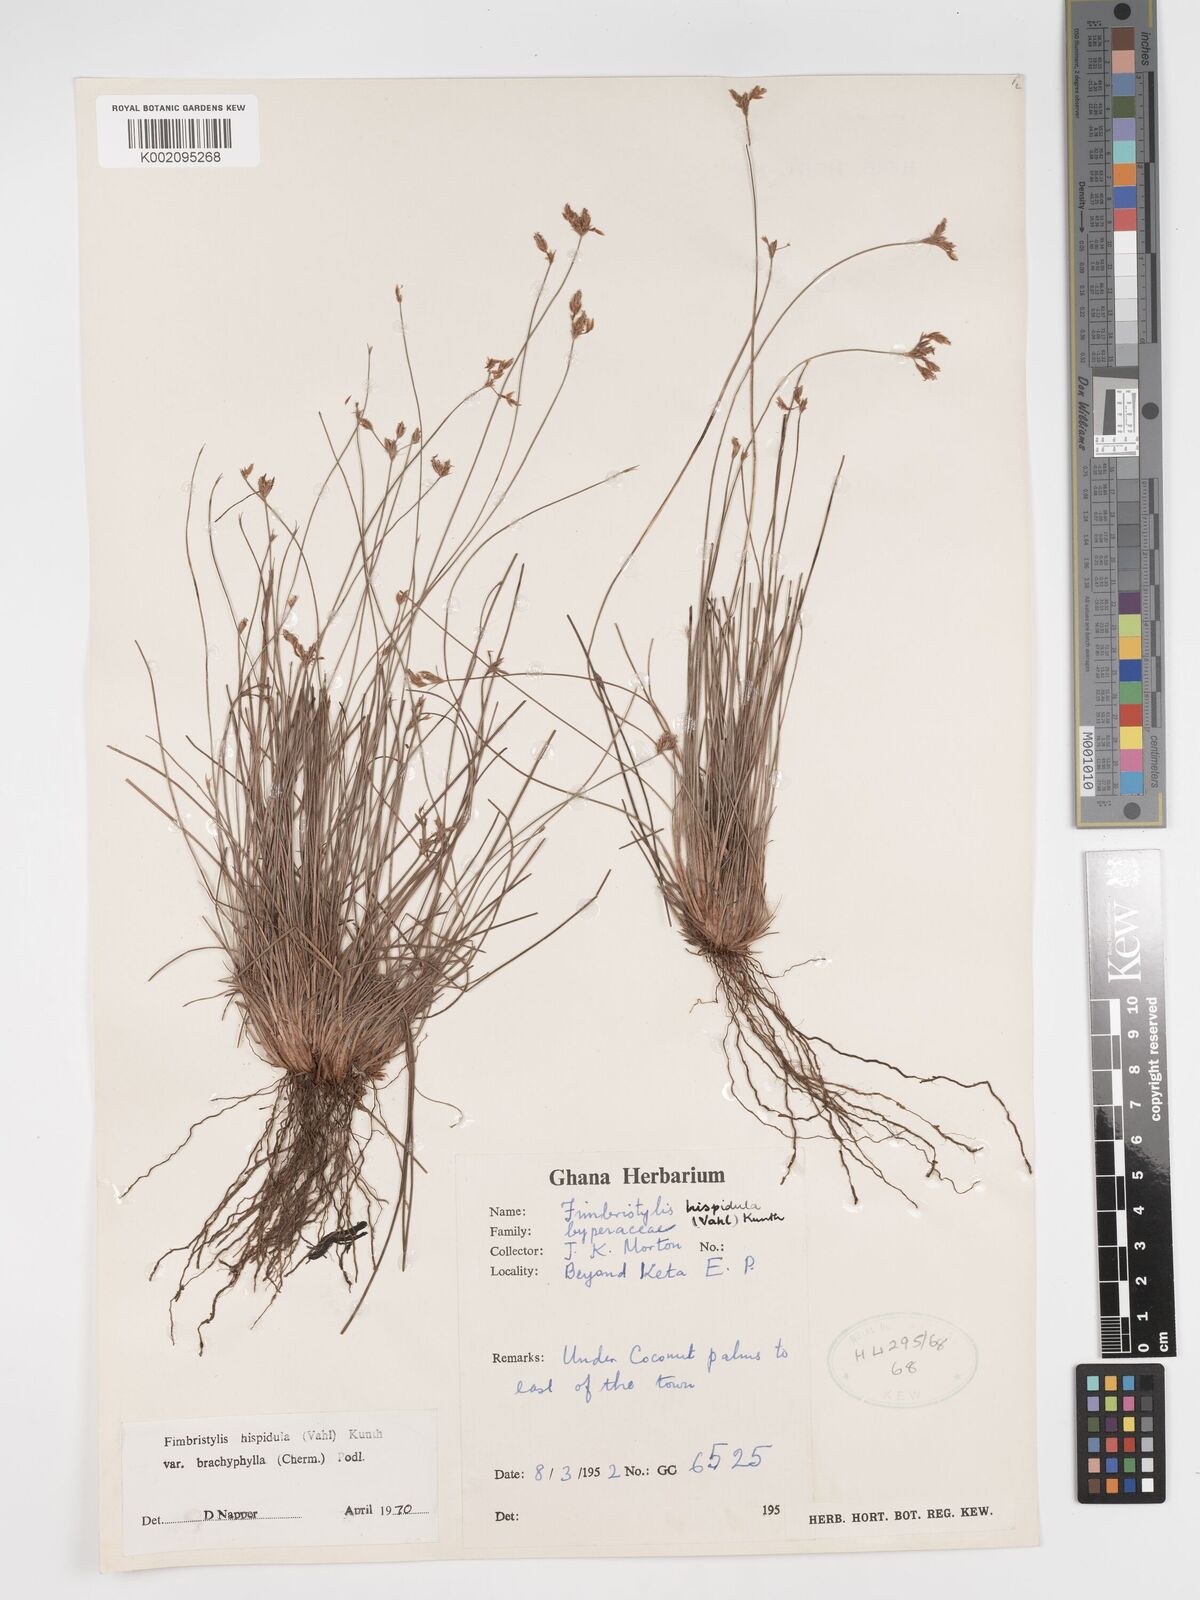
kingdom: Plantae
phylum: Tracheophyta
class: Liliopsida
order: Poales
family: Cyperaceae
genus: Bulbostylis
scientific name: Bulbostylis hispidula
